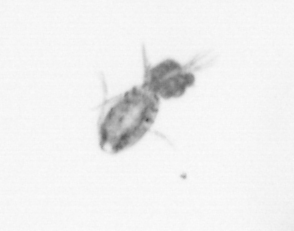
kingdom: Animalia
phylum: Arthropoda
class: Copepoda
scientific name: Copepoda
